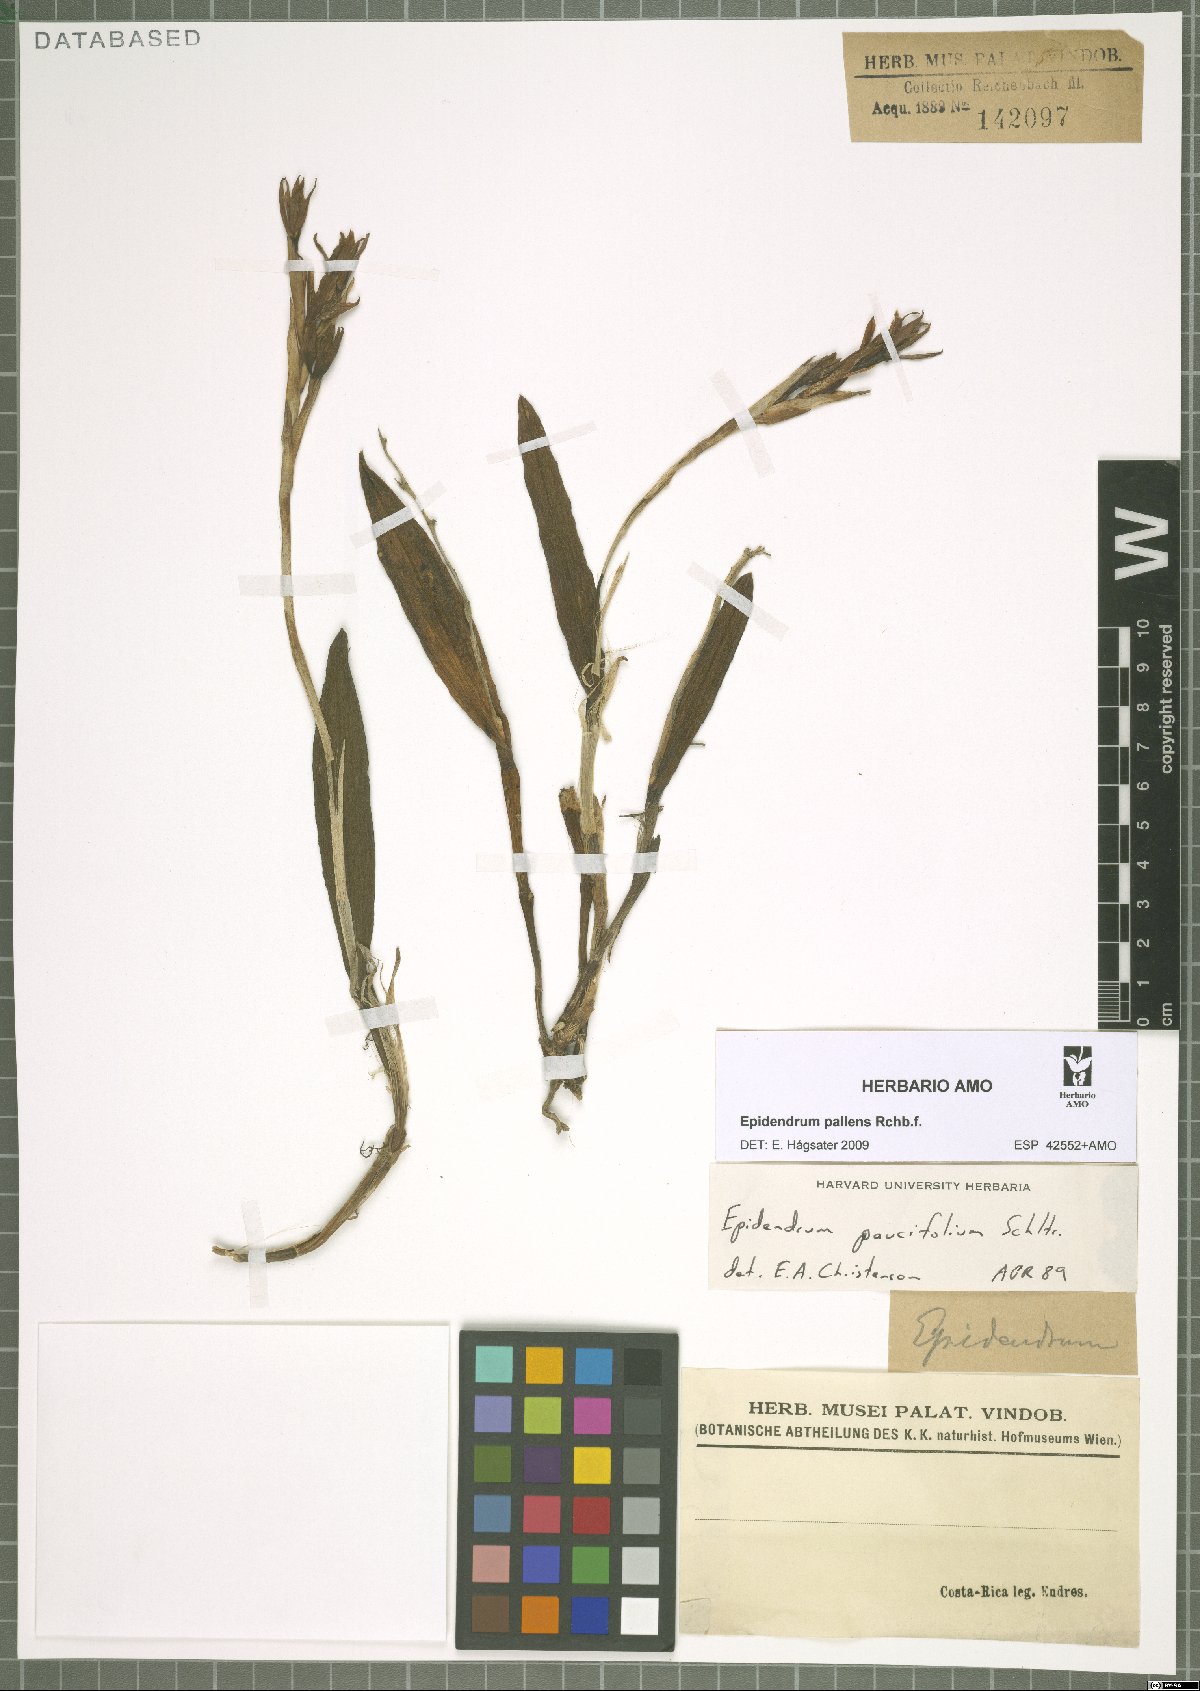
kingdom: Plantae
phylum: Tracheophyta
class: Liliopsida
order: Asparagales
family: Orchidaceae
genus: Epidendrum
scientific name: Epidendrum pallens
